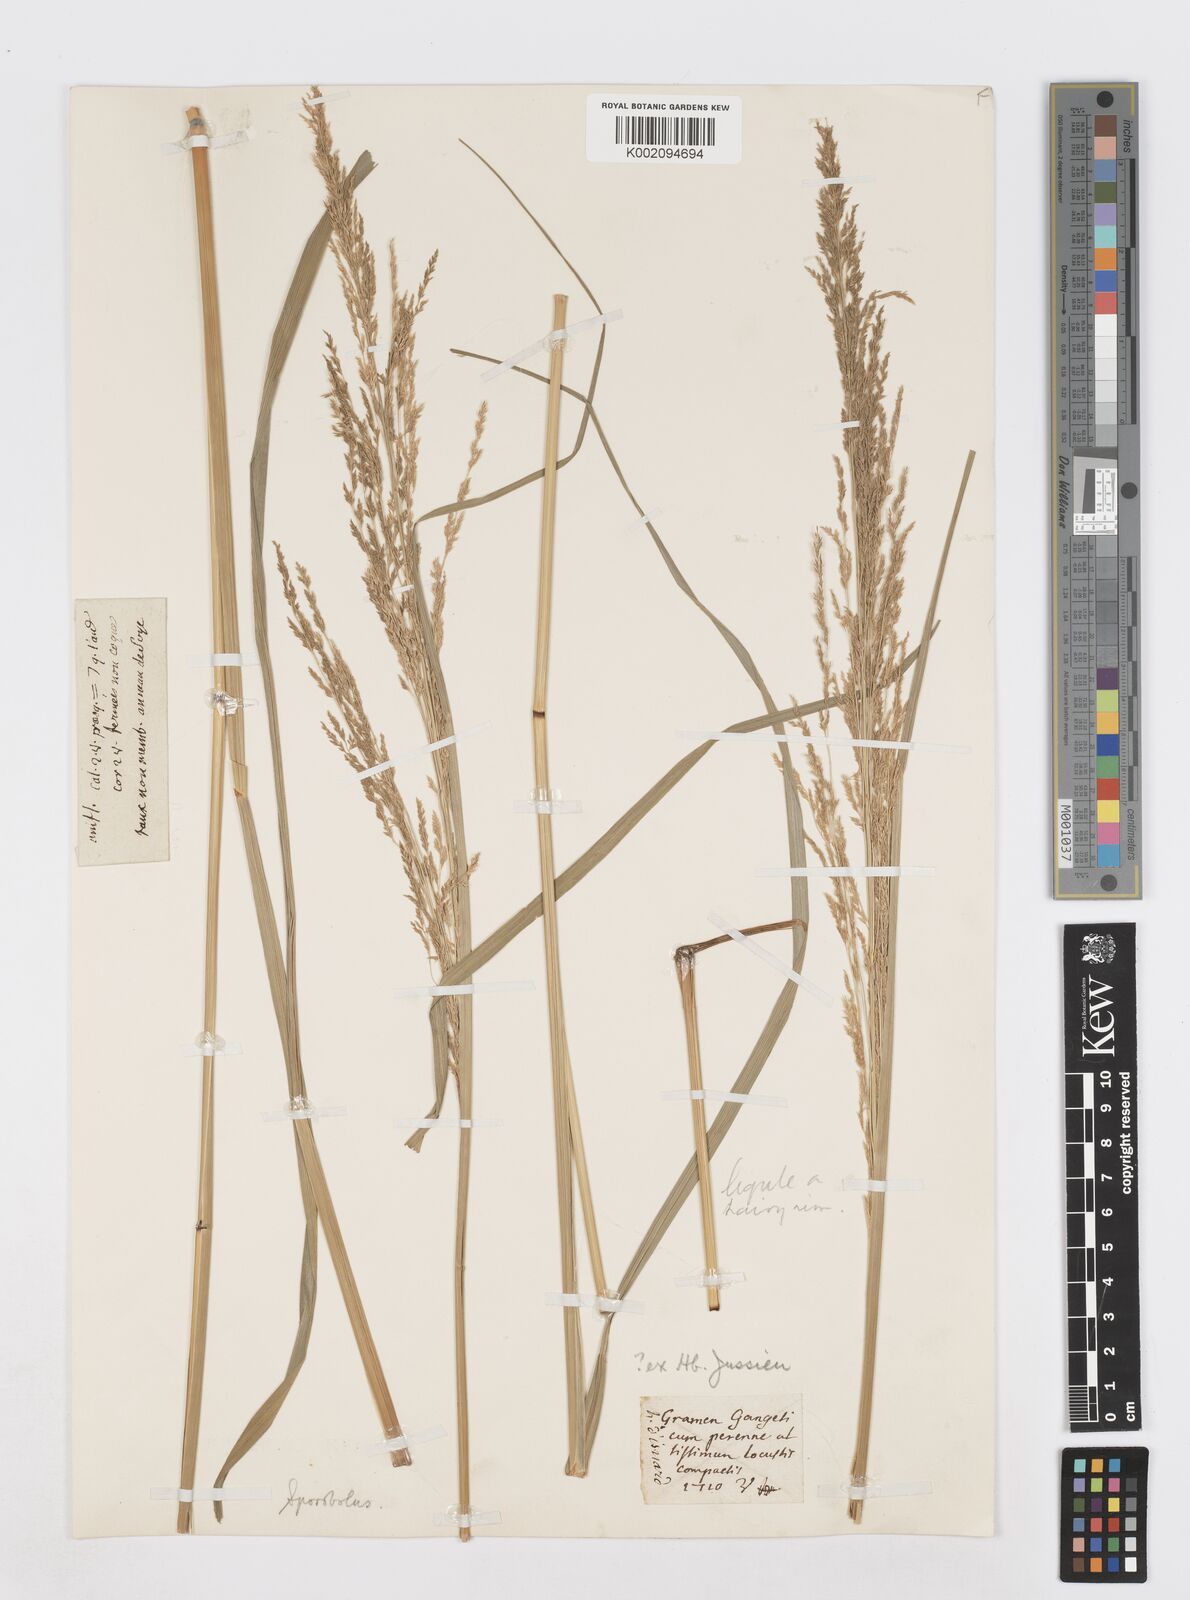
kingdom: Plantae
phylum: Tracheophyta
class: Liliopsida
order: Poales
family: Poaceae
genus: Sporobolus
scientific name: Sporobolus
